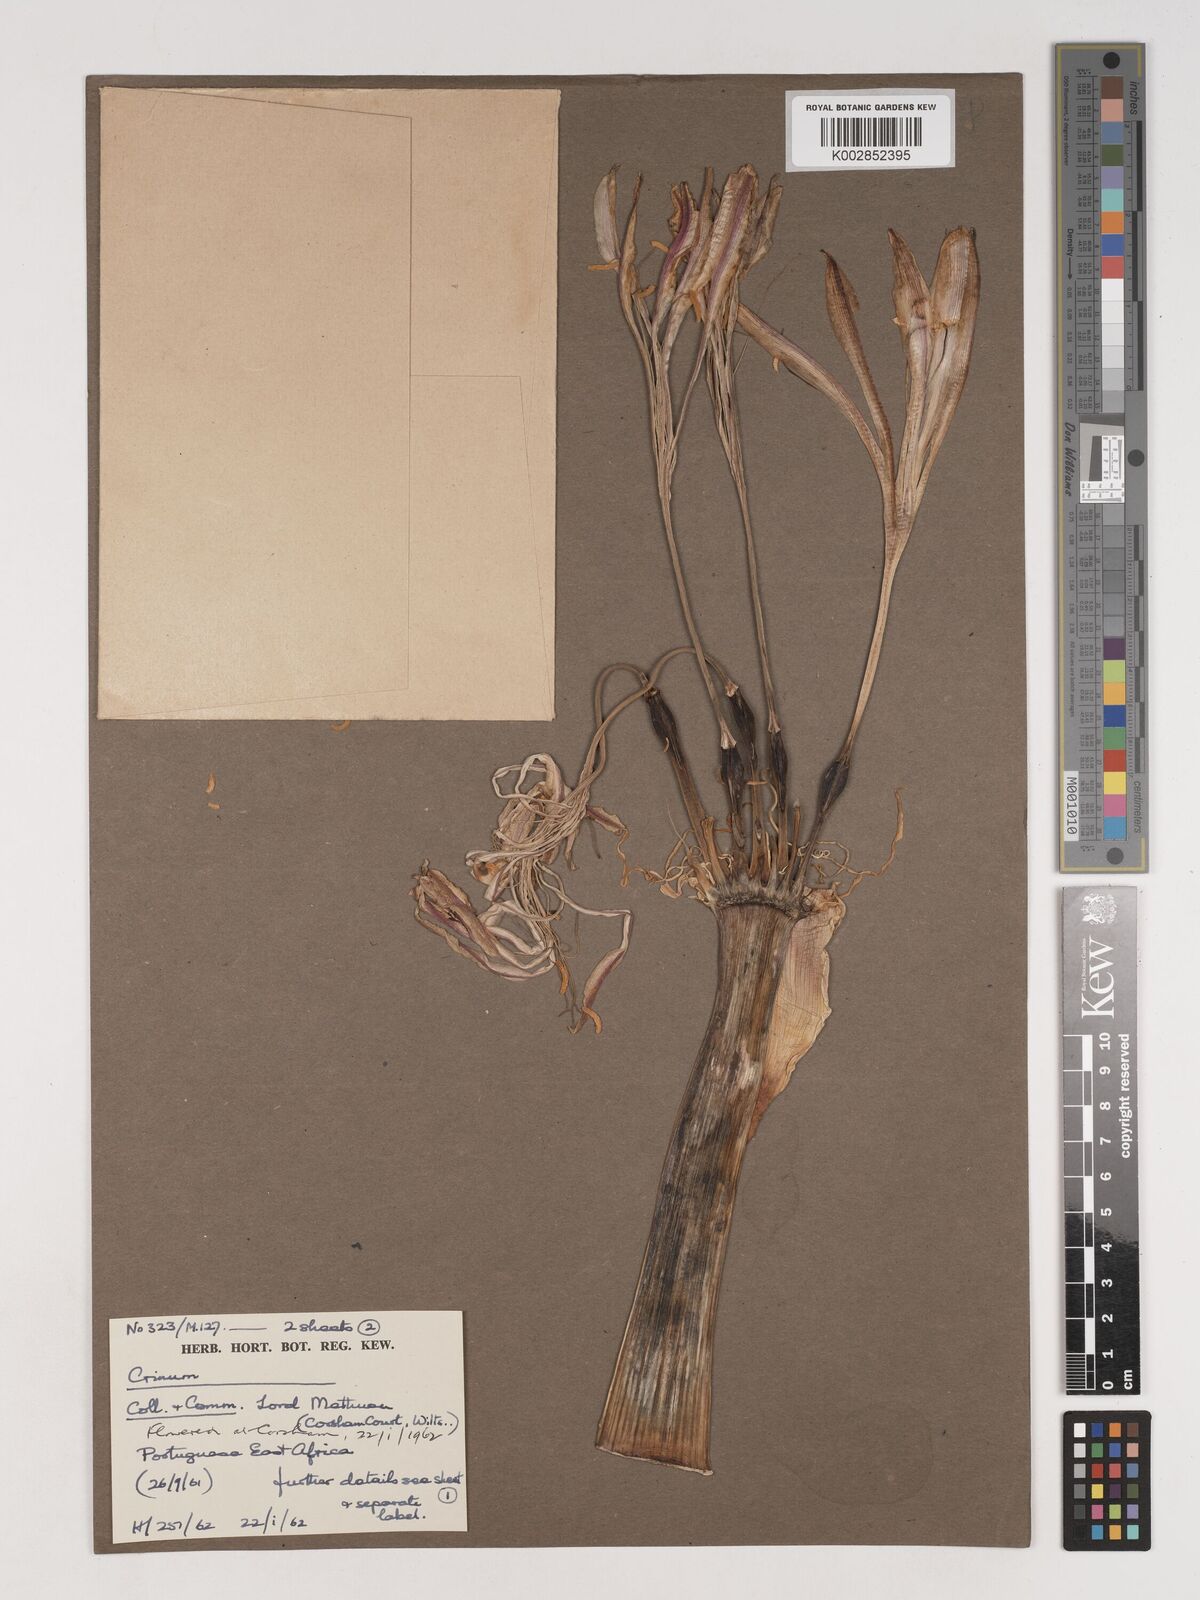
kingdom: Plantae
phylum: Tracheophyta
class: Liliopsida
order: Asparagales
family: Amaryllidaceae
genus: Crinum
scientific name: Crinum stuhlmannii
